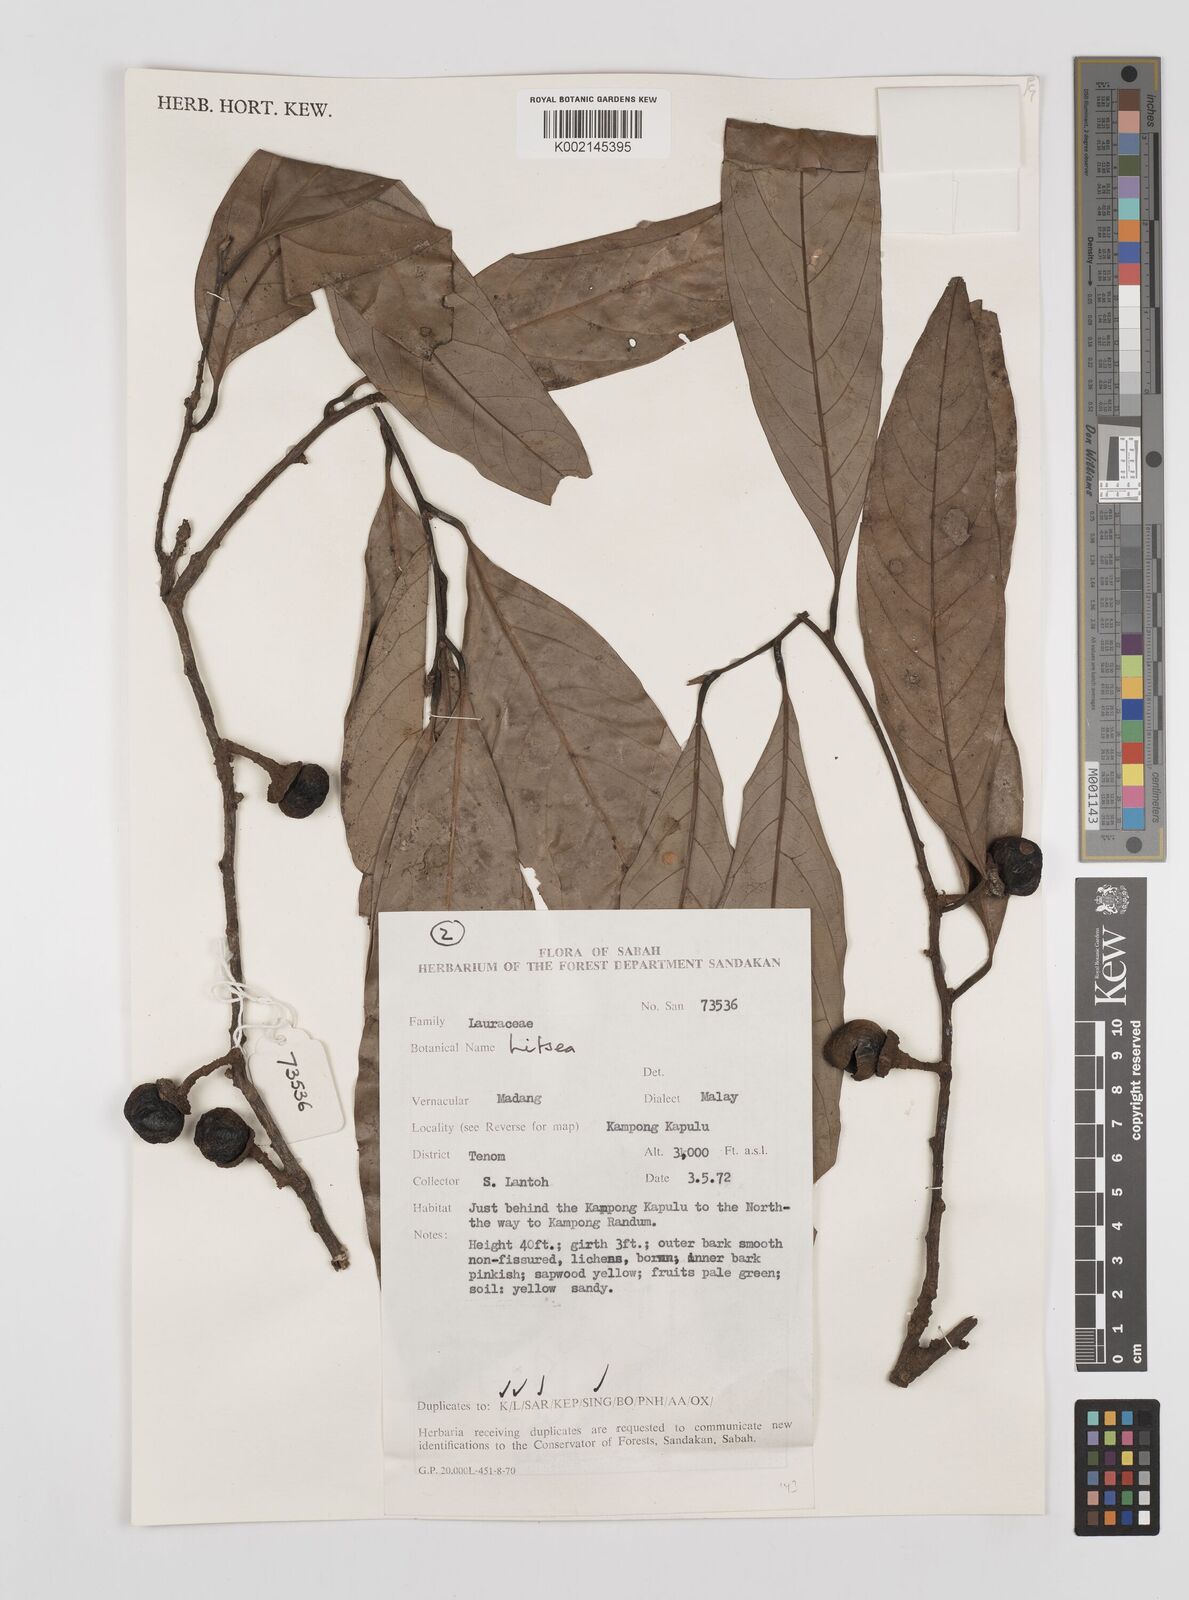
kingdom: Plantae
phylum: Tracheophyta
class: Magnoliopsida
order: Laurales
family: Lauraceae
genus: Litsea
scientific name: Litsea
